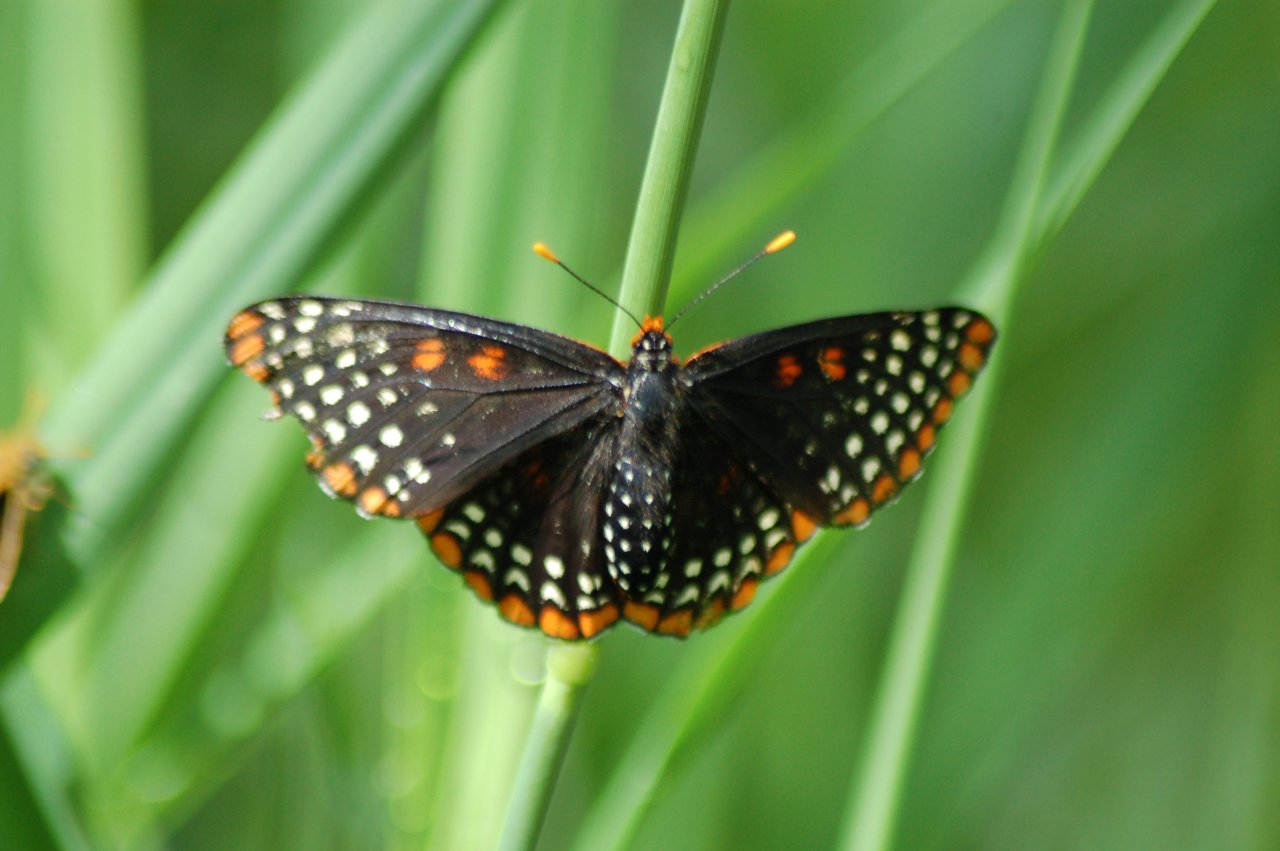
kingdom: Animalia
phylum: Arthropoda
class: Insecta
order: Lepidoptera
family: Nymphalidae
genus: Euphydryas
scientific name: Euphydryas phaeton
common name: Baltimore Checkerspot
